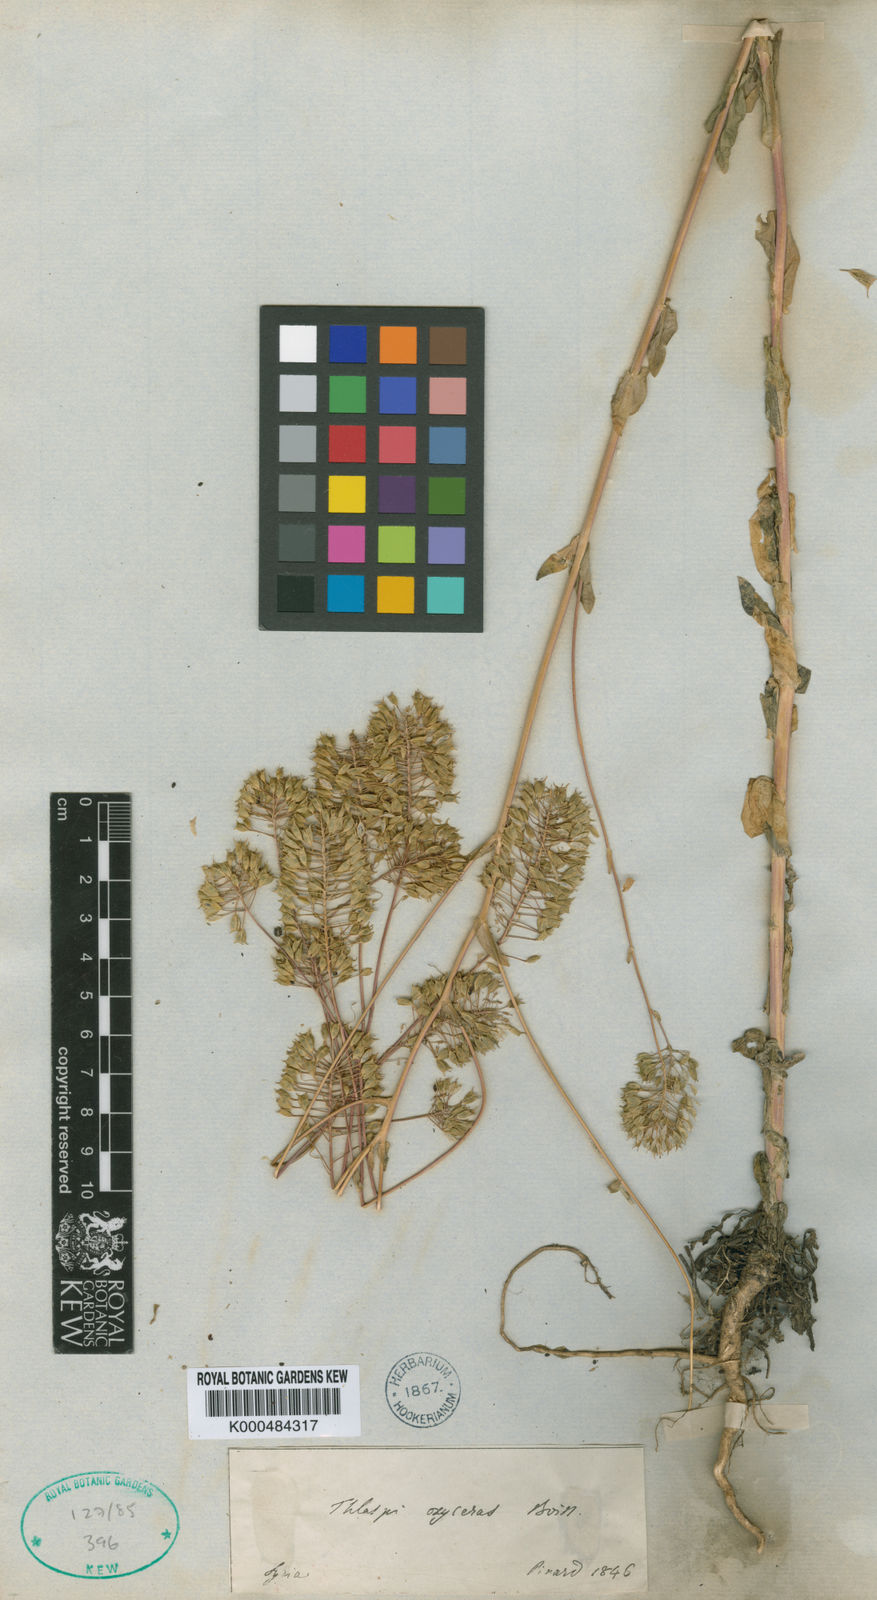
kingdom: Plantae
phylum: Tracheophyta
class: Magnoliopsida
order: Brassicales
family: Brassicaceae
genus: Thlaspi
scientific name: Thlaspi
